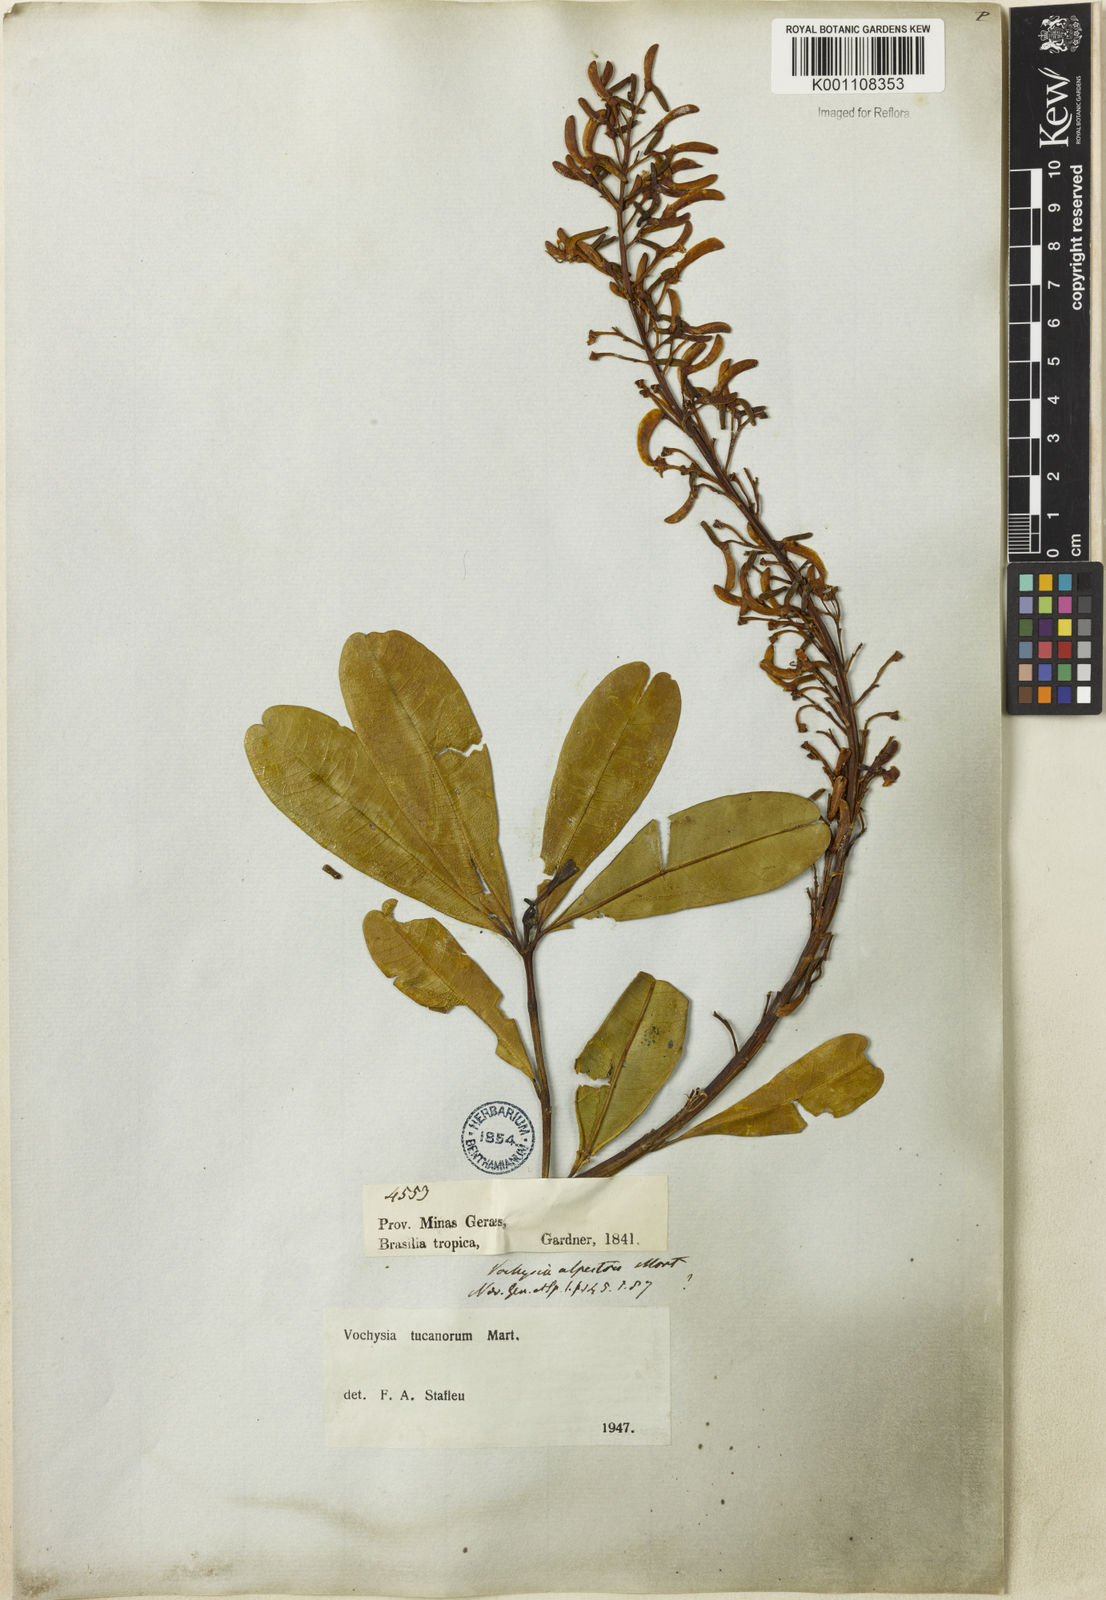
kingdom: Plantae
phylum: Tracheophyta
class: Magnoliopsida
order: Myrtales
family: Vochysiaceae
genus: Vochysia
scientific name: Vochysia tucanorum
